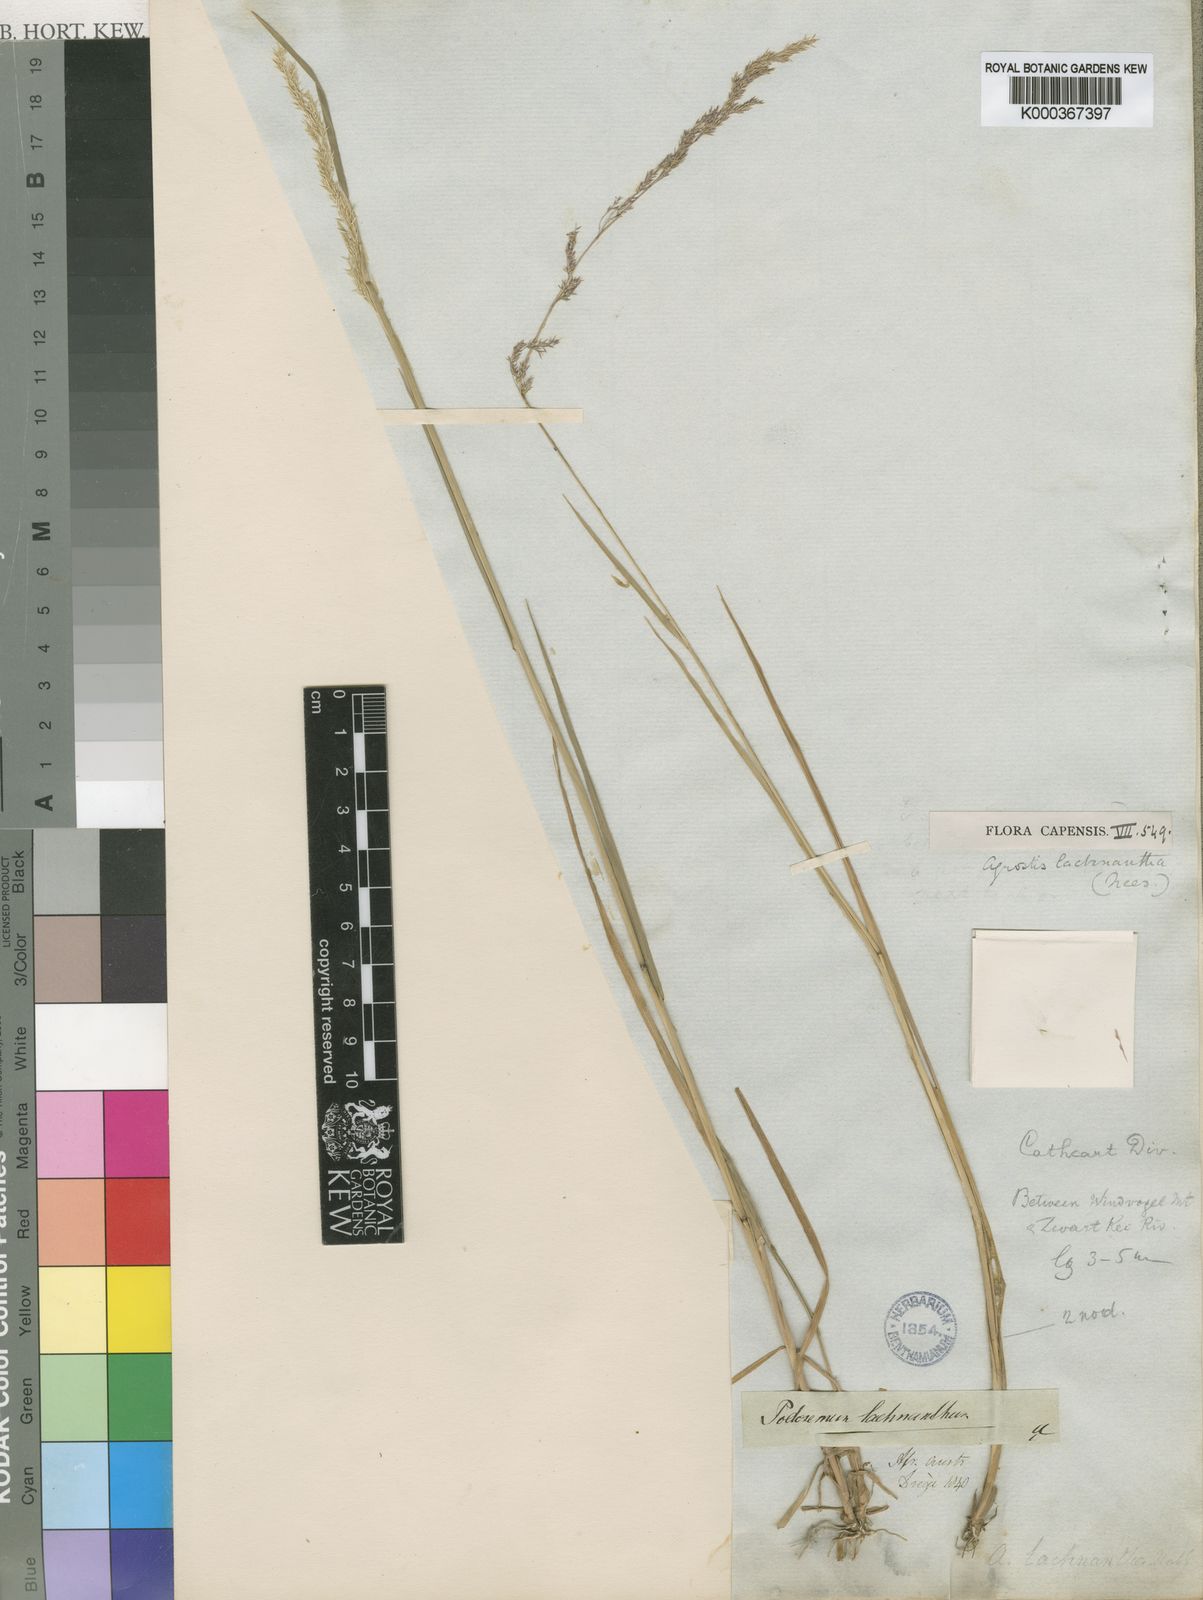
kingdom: Plantae
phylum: Tracheophyta
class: Liliopsida
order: Poales
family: Poaceae
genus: Lachnagrostis
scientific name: Lachnagrostis lachnantha
